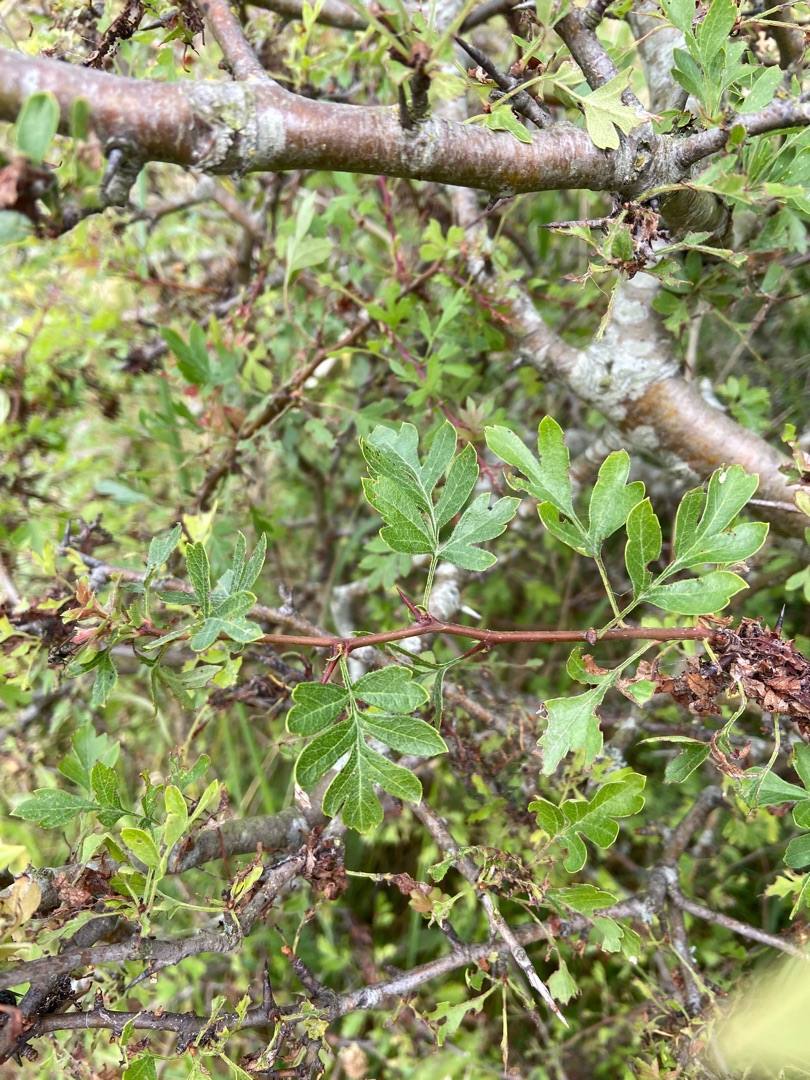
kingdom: Plantae
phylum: Tracheophyta
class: Magnoliopsida
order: Rosales
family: Rosaceae
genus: Crataegus
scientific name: Crataegus monogyna
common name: Engriflet hvidtjørn
